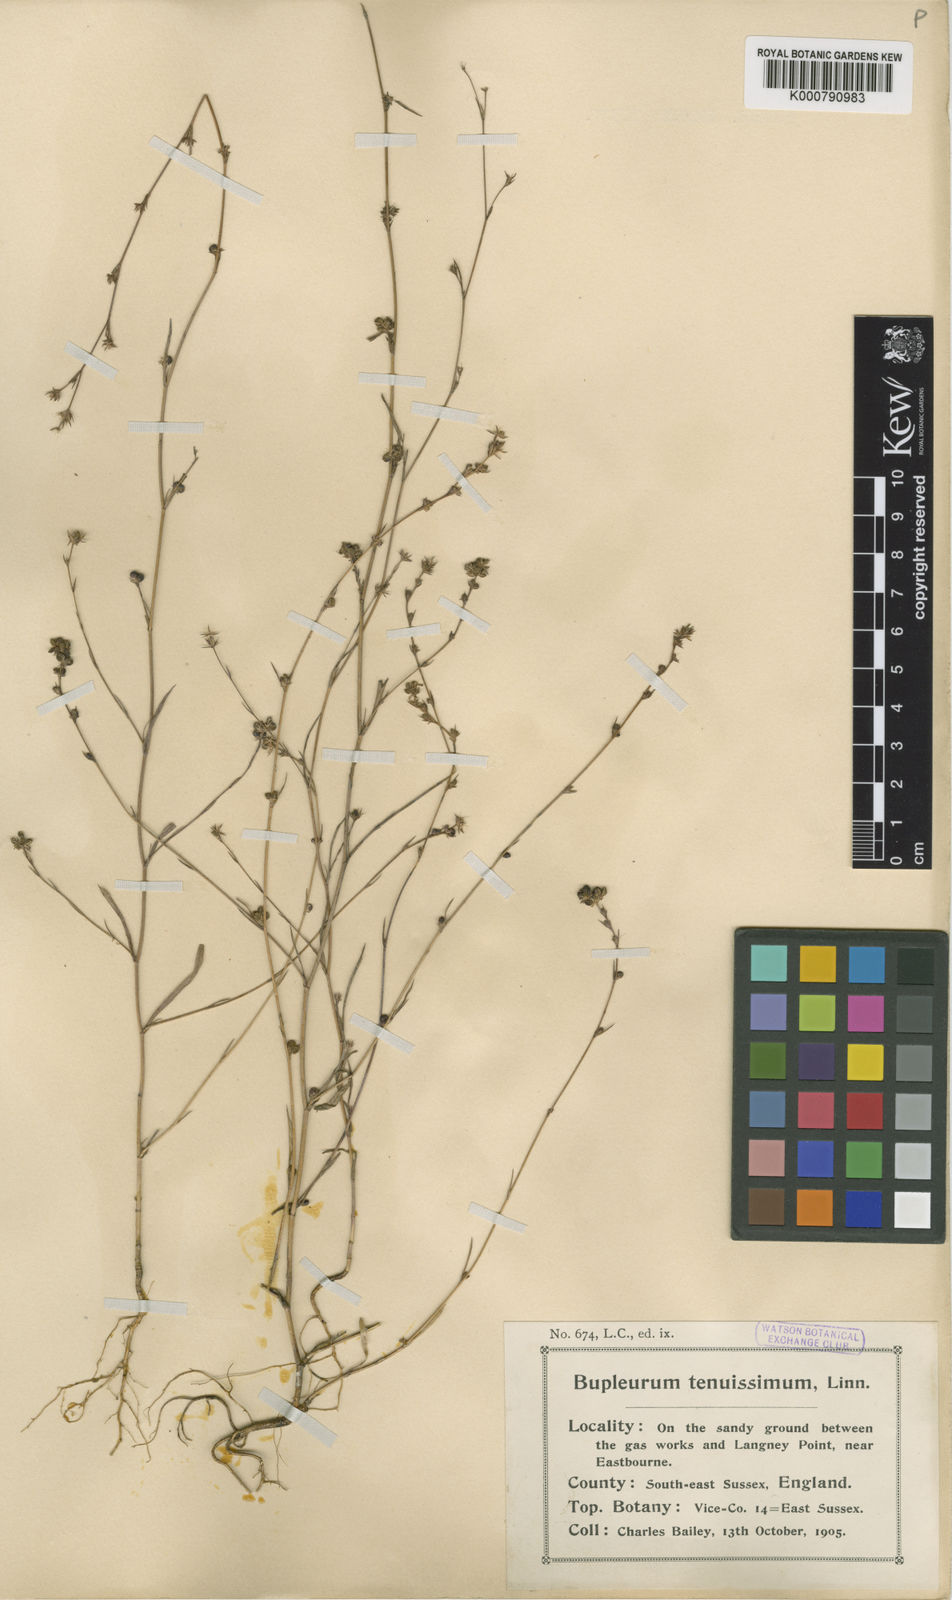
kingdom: Plantae
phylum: Tracheophyta
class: Magnoliopsida
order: Apiales
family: Apiaceae
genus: Bupleurum
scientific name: Bupleurum tenuissimum
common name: Slender hare's-ear
